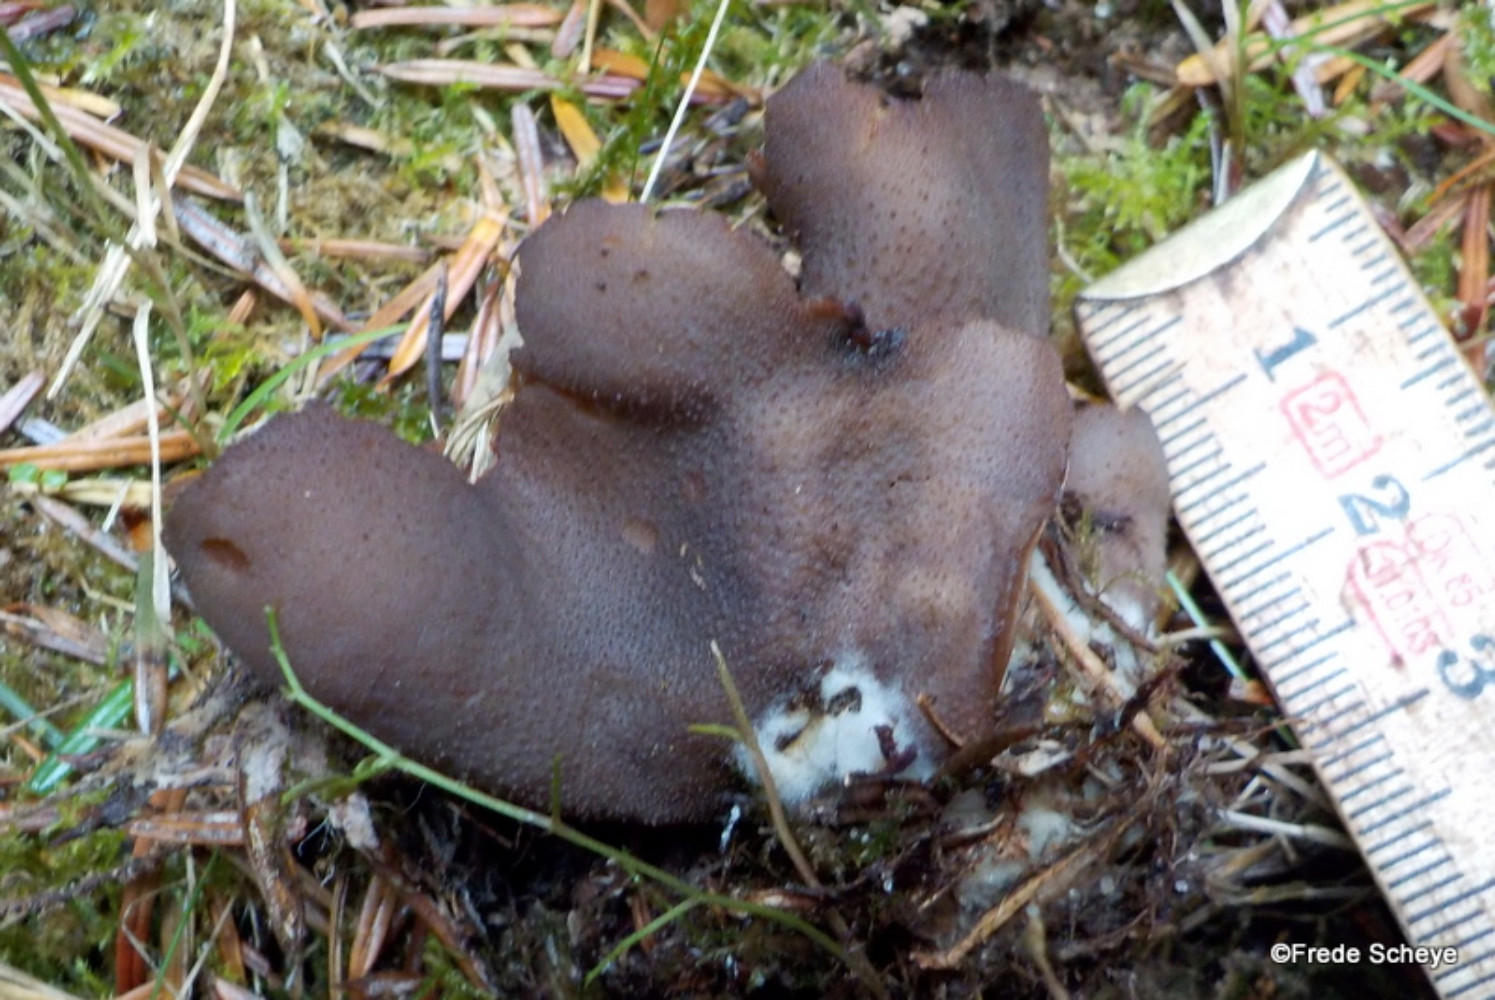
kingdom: Fungi
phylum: Ascomycota
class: Pezizomycetes
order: Pezizales
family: Otideaceae
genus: Otidea
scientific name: Otidea bufonia
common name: brun ørebæger
